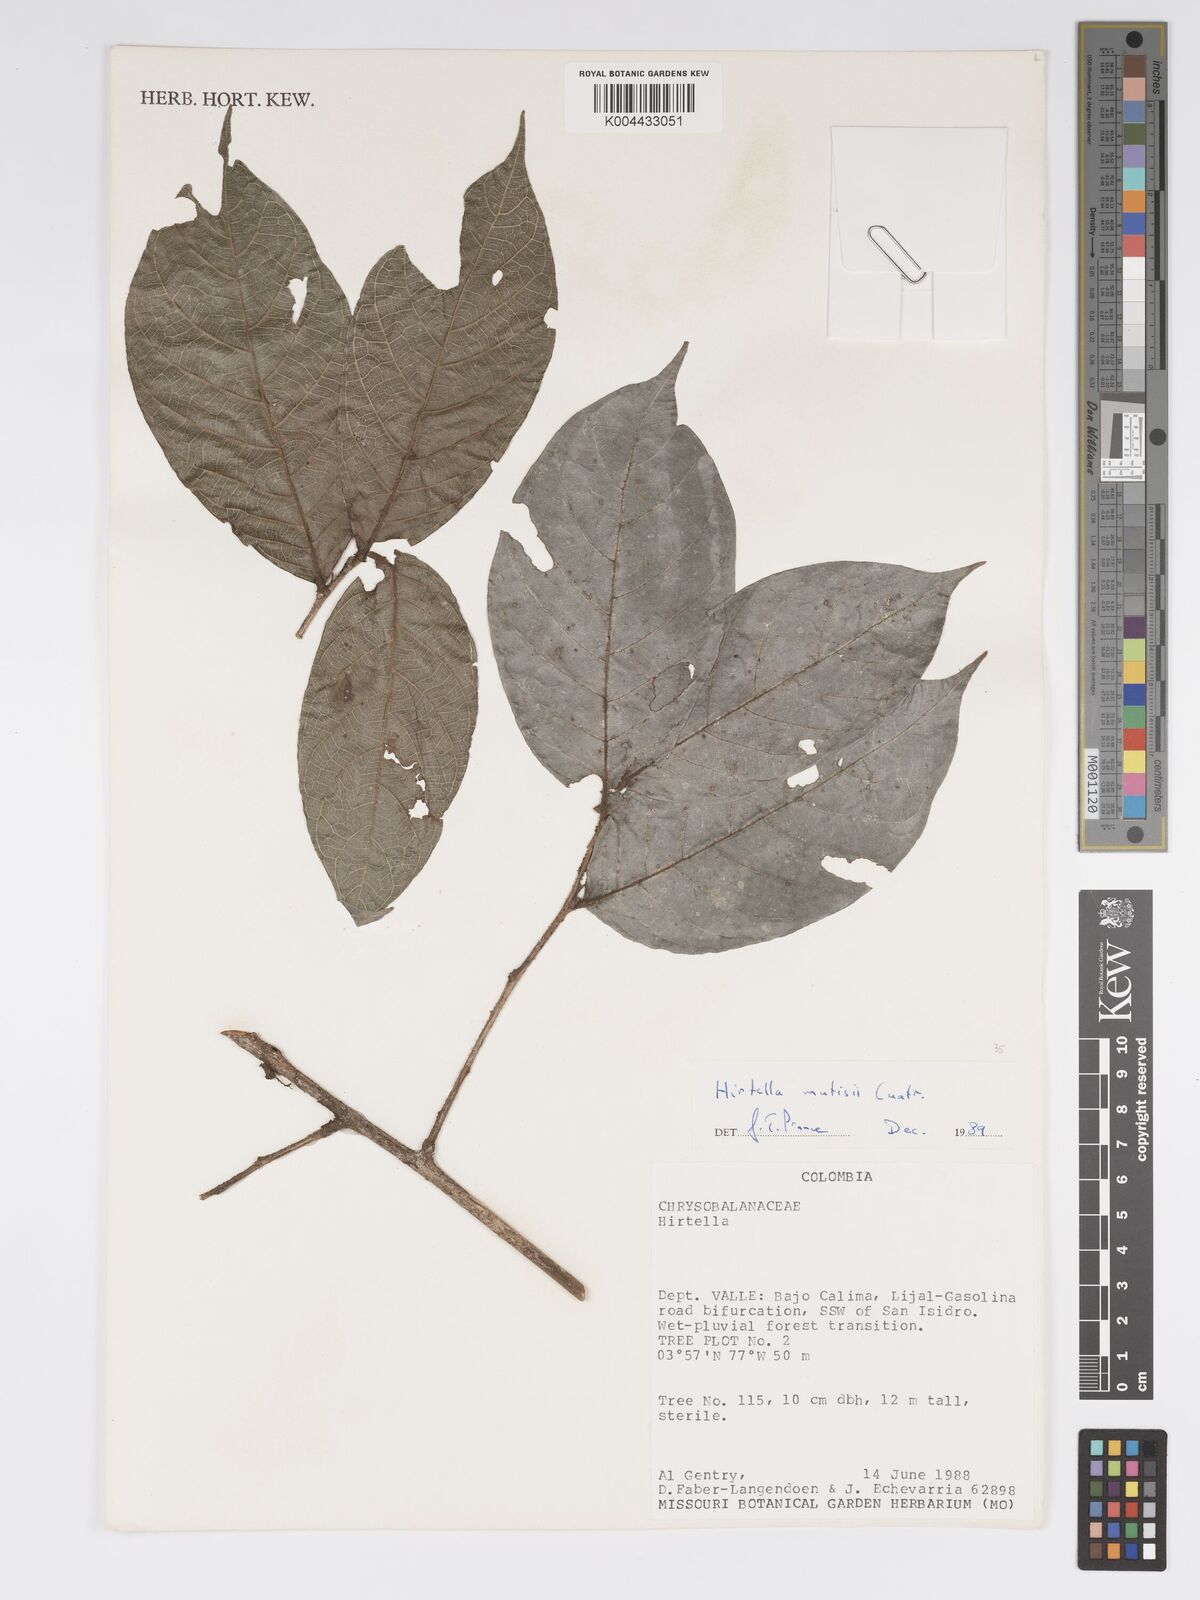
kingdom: Plantae
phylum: Tracheophyta
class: Magnoliopsida
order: Malpighiales
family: Chrysobalanaceae
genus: Hirtella
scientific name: Hirtella mutisii
